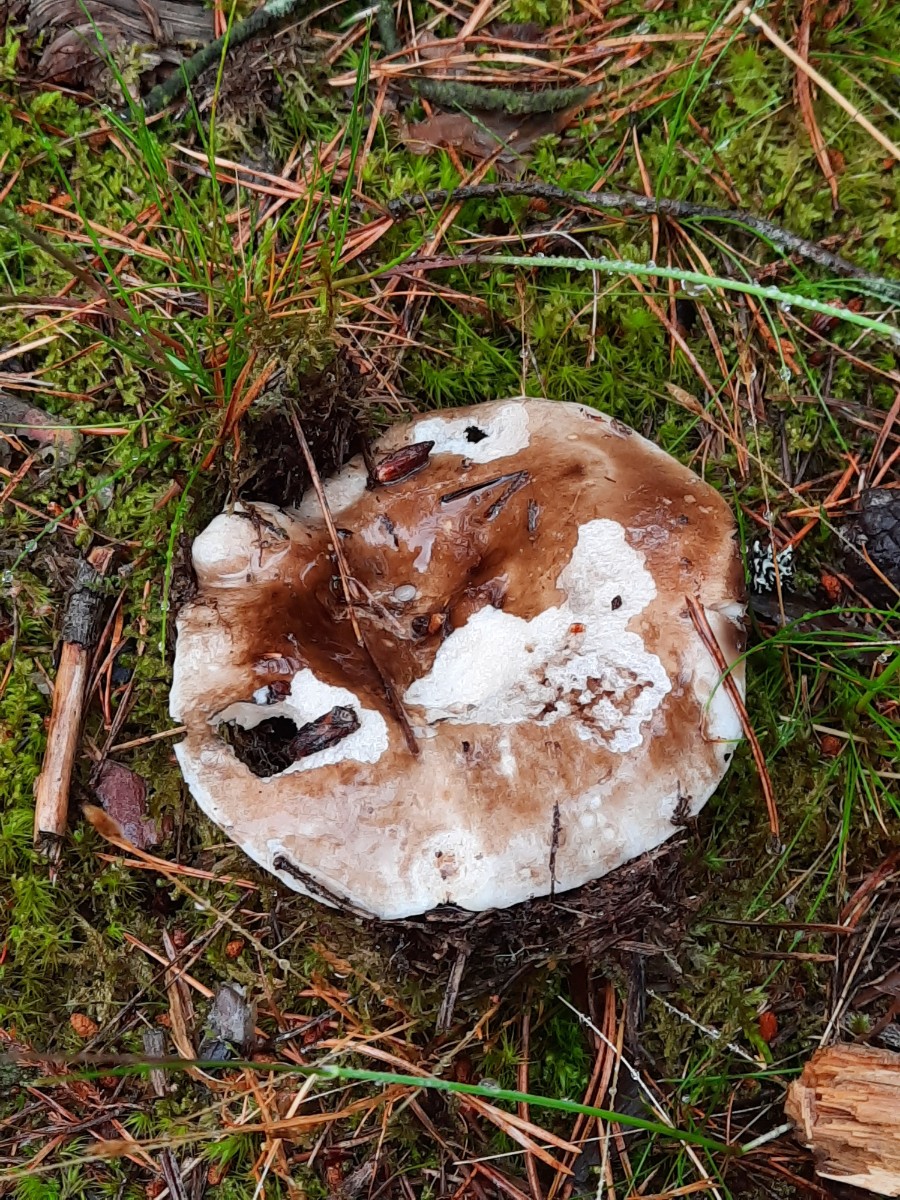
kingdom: Fungi
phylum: Basidiomycota
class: Agaricomycetes
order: Russulales
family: Russulaceae
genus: Russula
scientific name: Russula adusta
